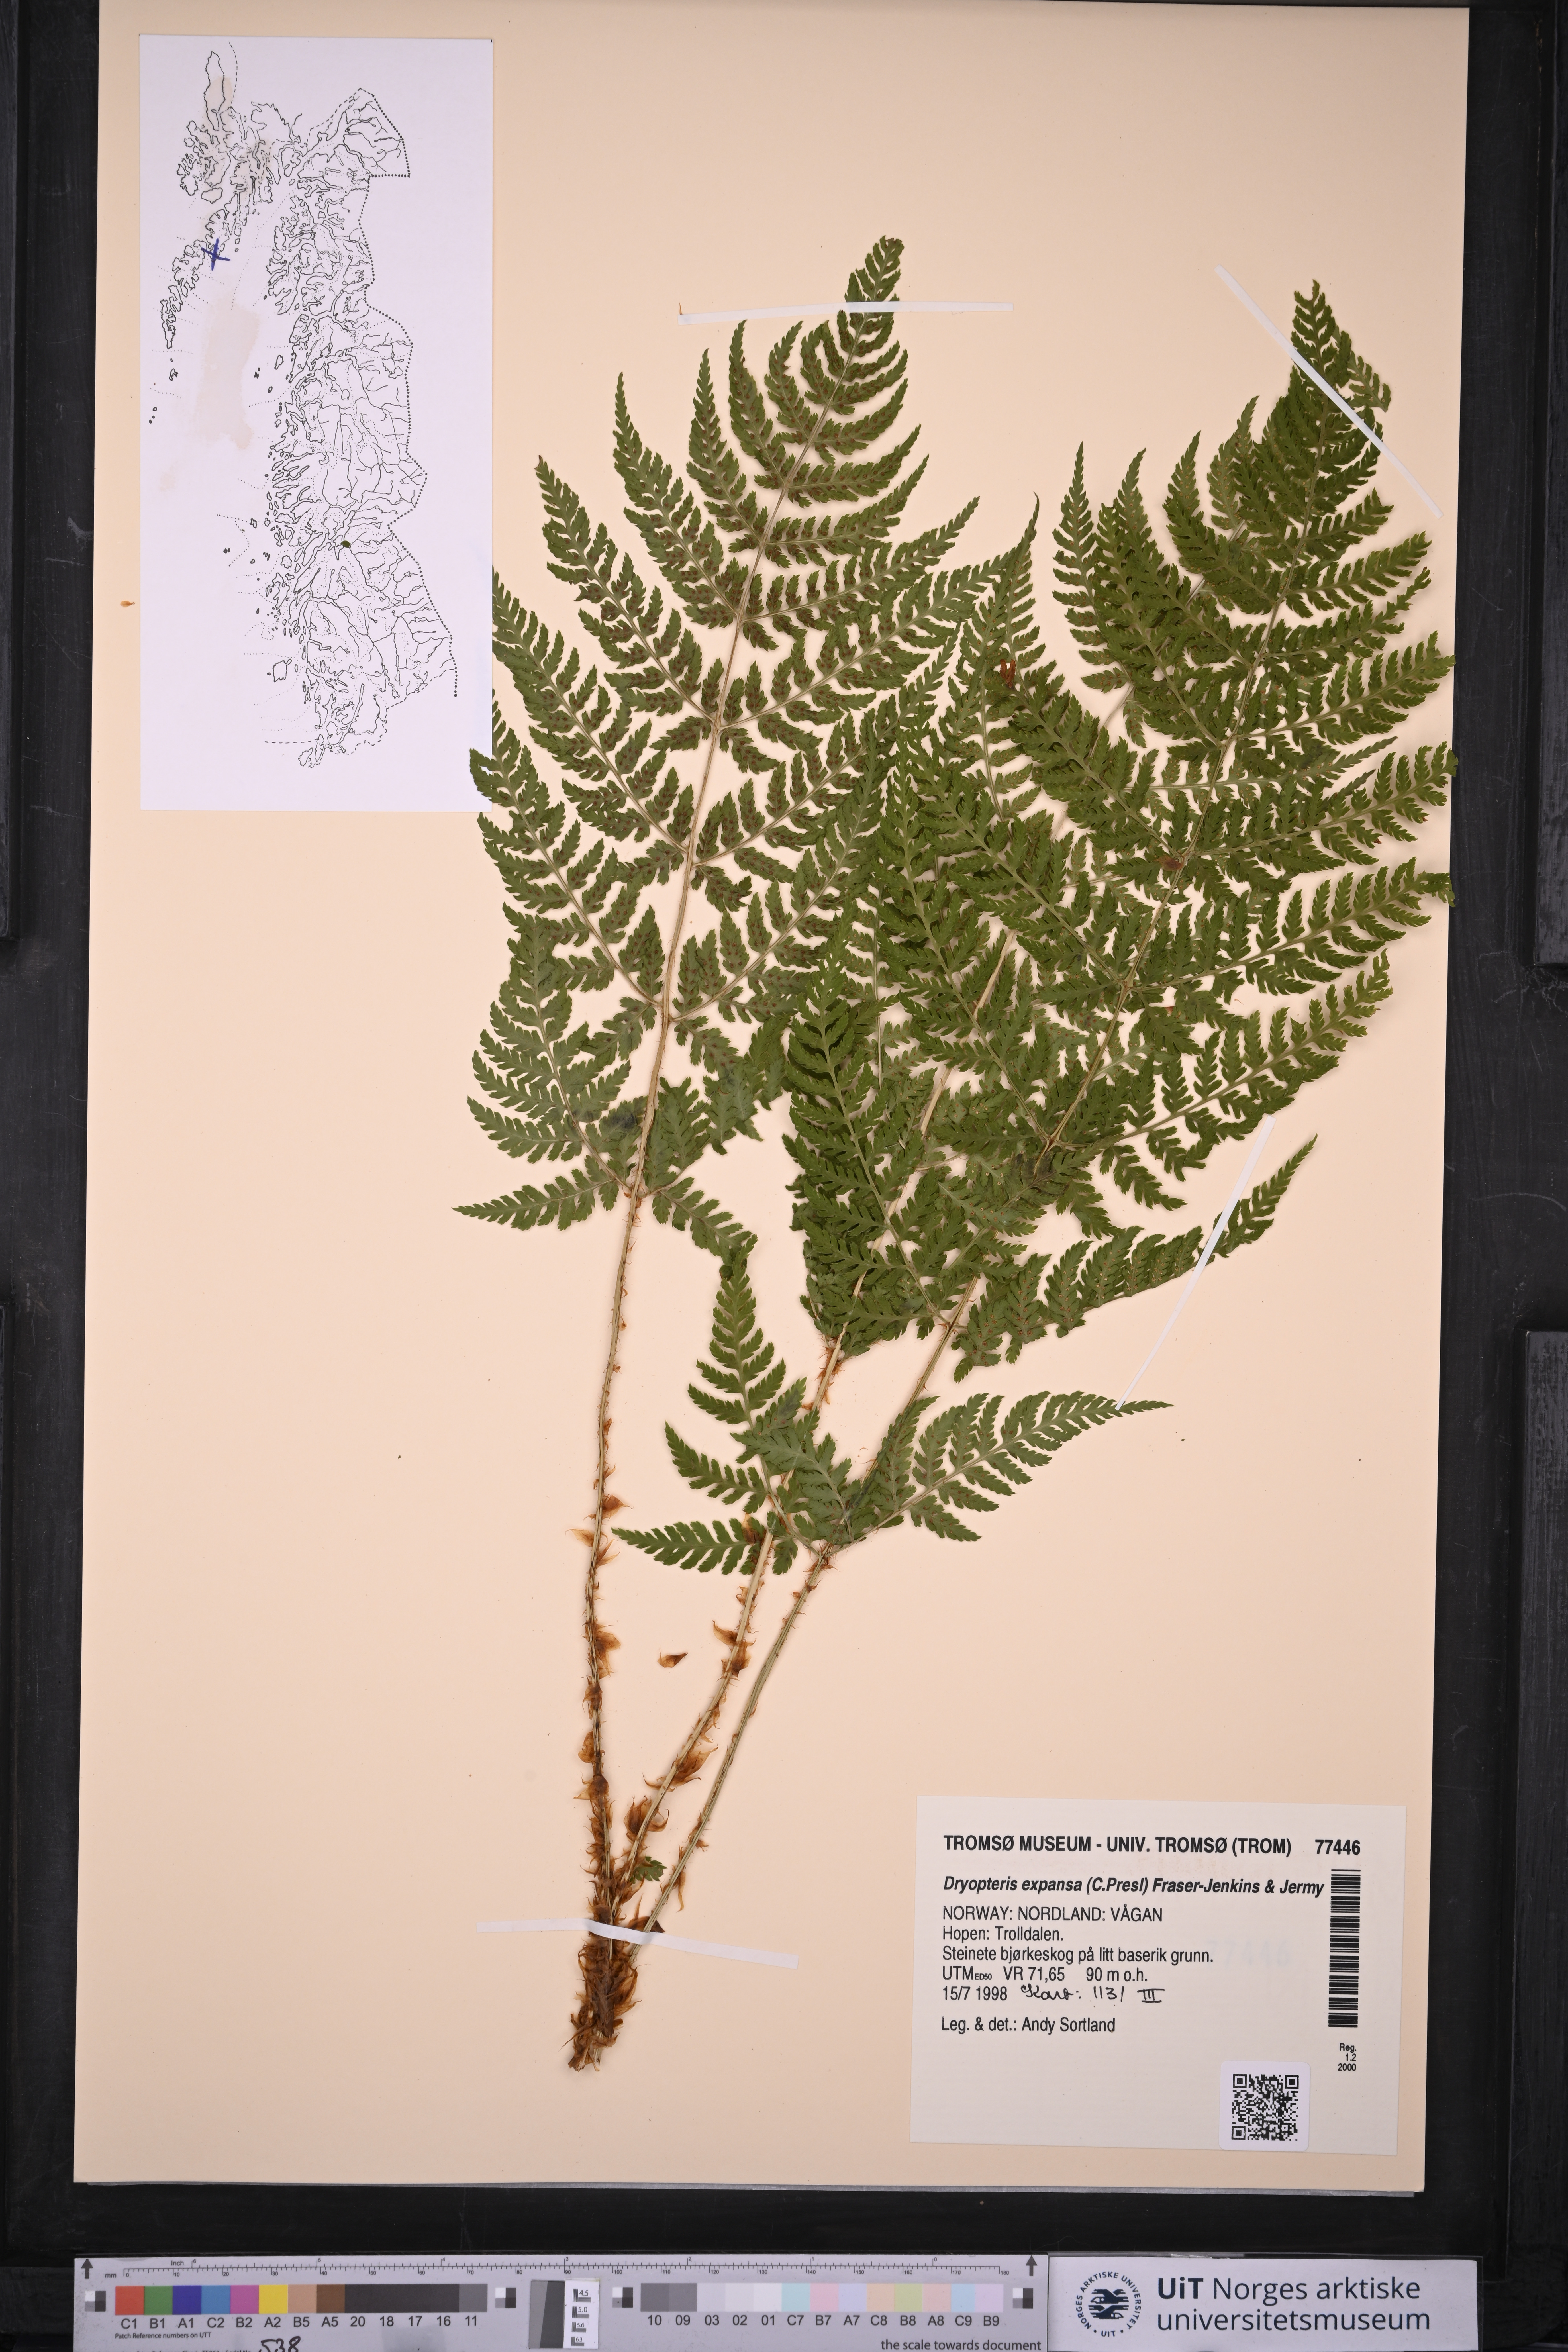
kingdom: Plantae
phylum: Tracheophyta
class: Polypodiopsida
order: Polypodiales
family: Dryopteridaceae
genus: Dryopteris
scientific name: Dryopteris expansa
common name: Northern buckler fern
